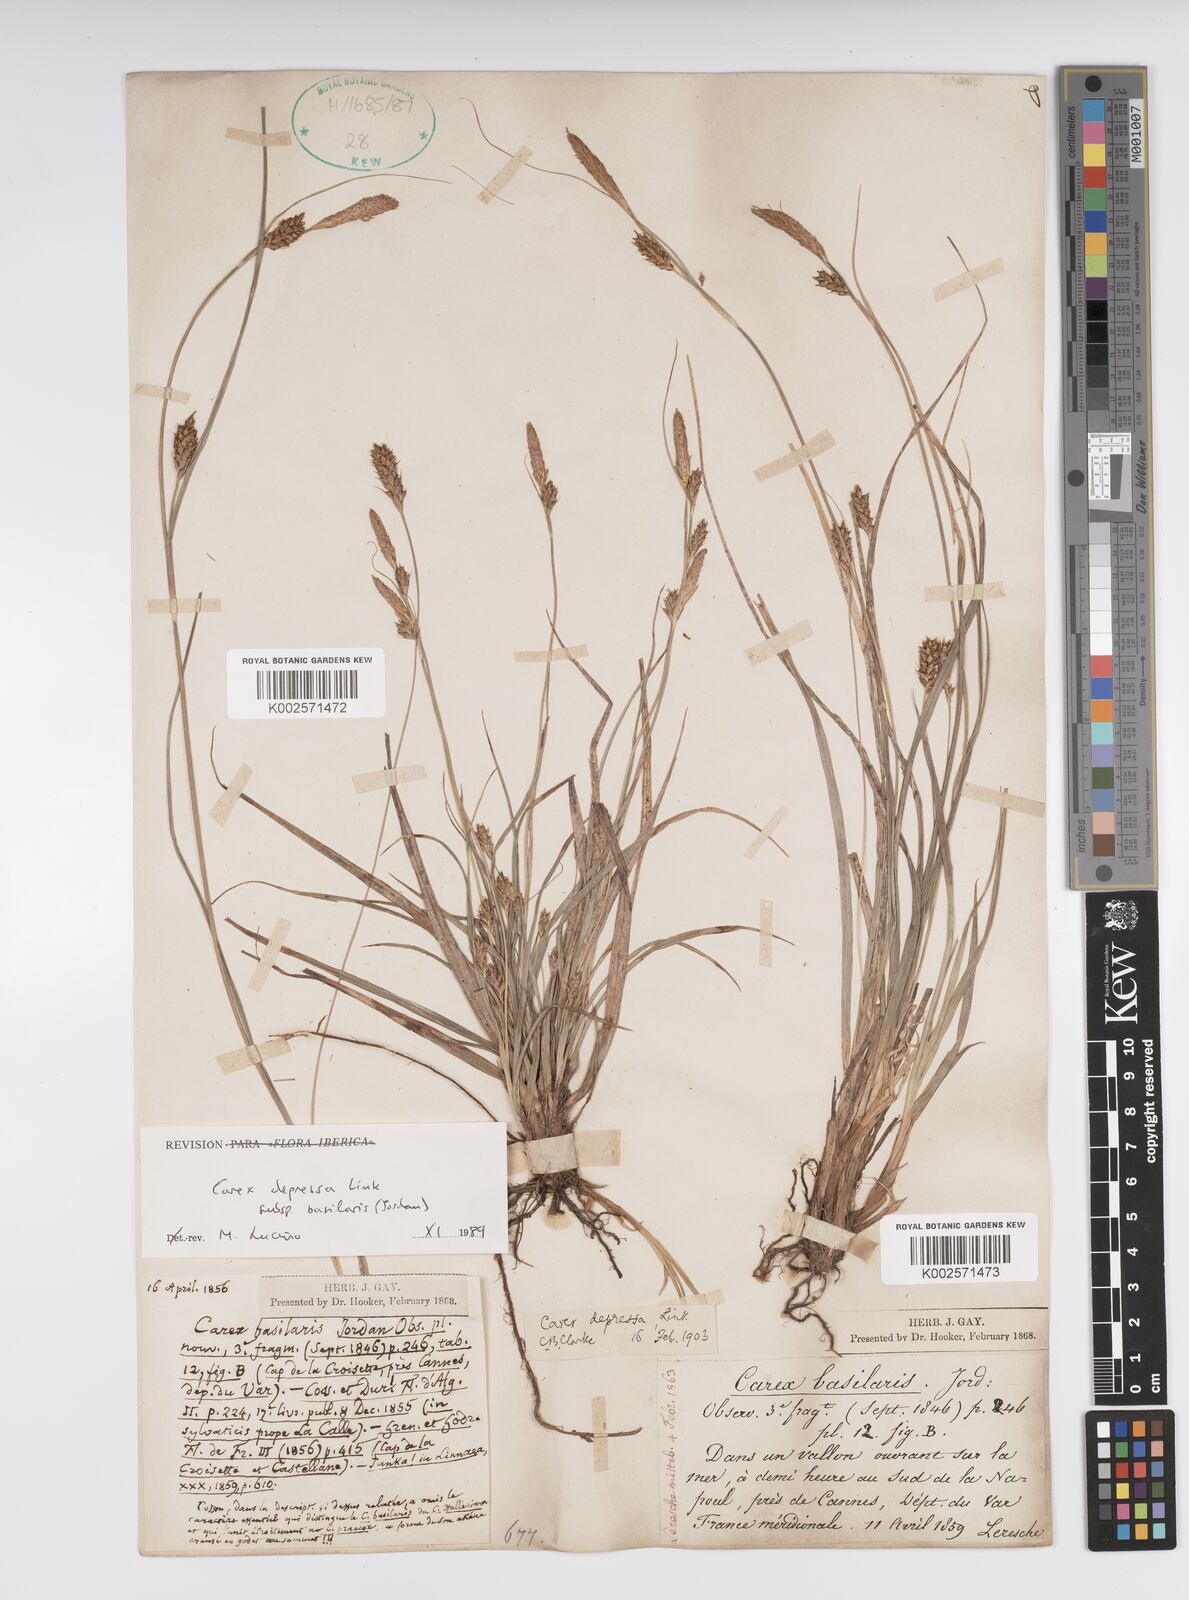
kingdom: Plantae
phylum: Tracheophyta
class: Liliopsida
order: Poales
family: Cyperaceae
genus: Carex
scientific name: Carex depressa
